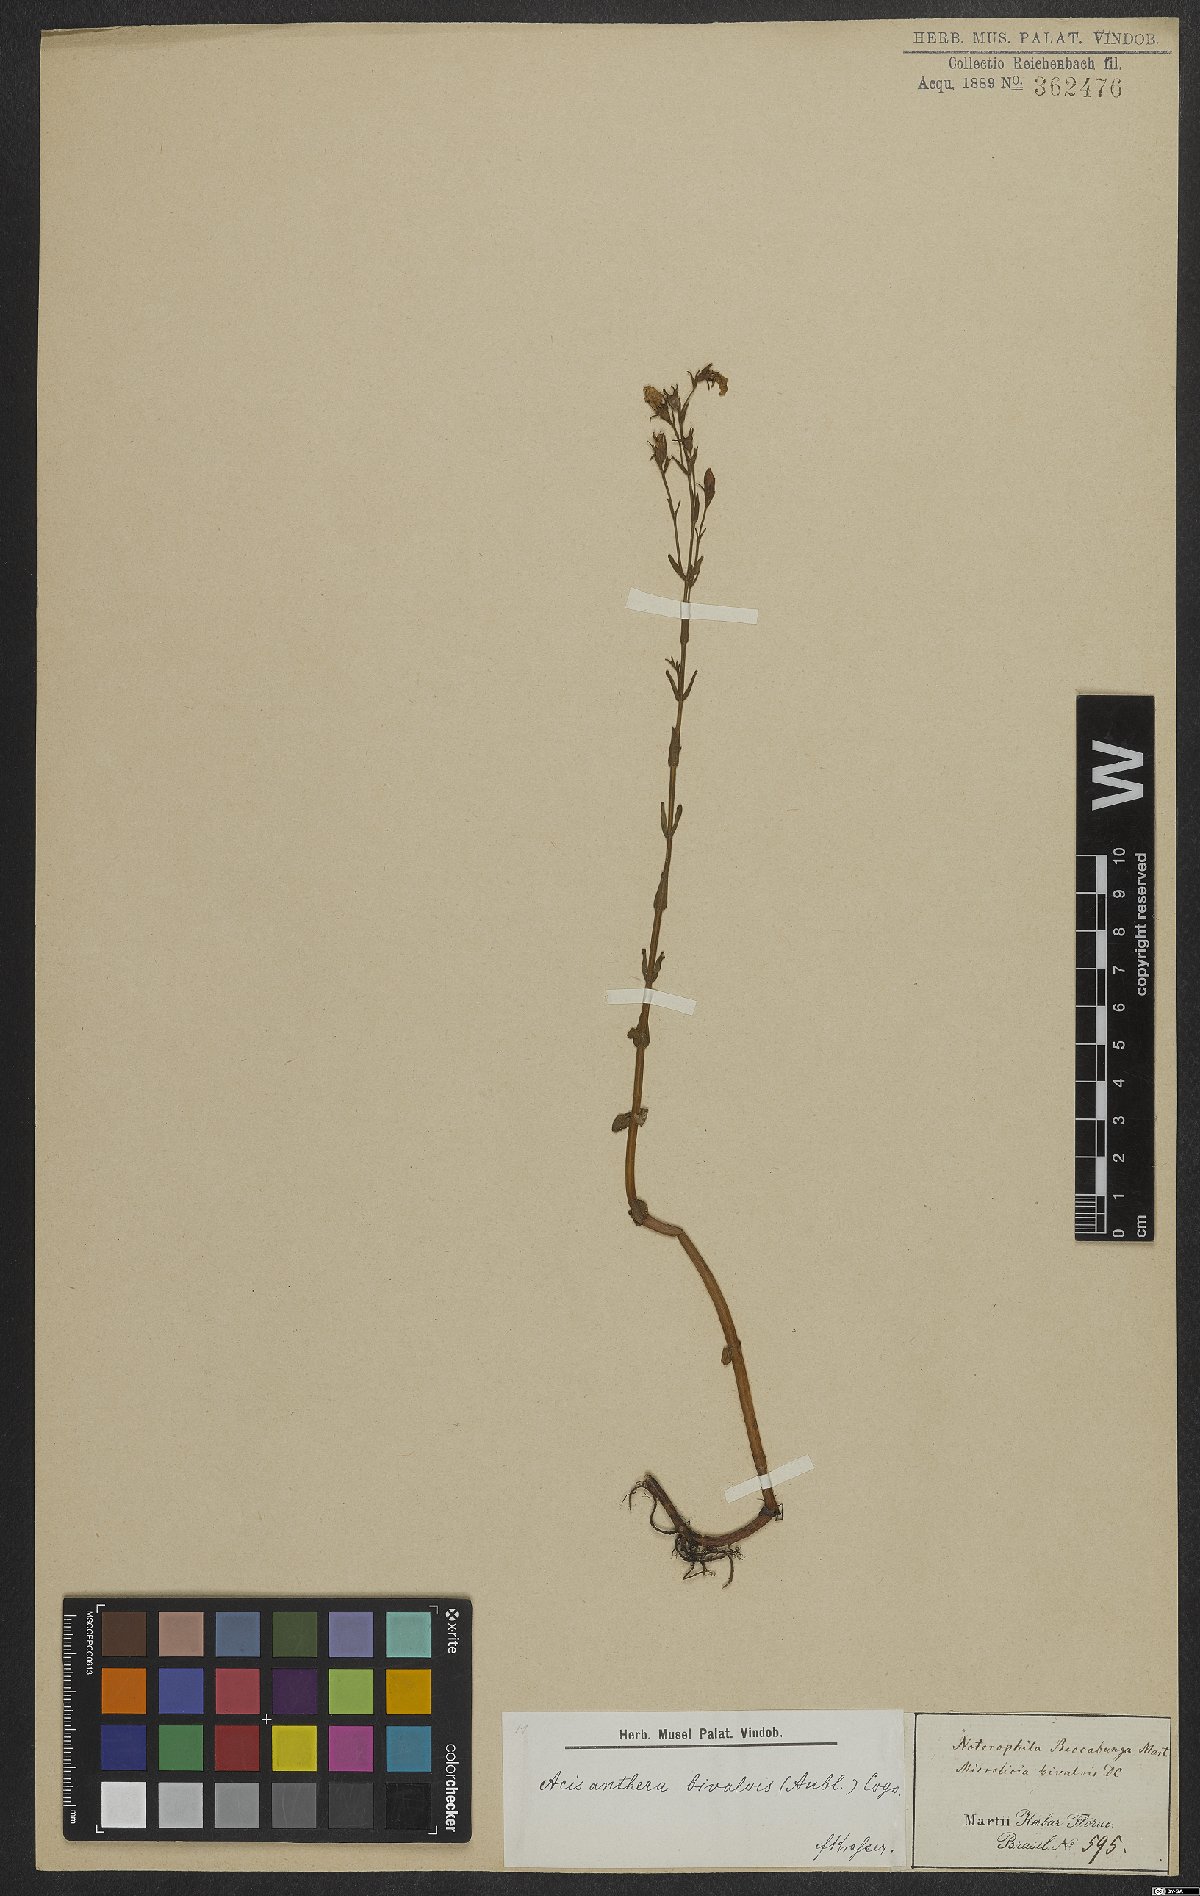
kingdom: Plantae
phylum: Tracheophyta
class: Magnoliopsida
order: Myrtales
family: Melastomataceae
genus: Noterophila
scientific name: Noterophila bivalvis
